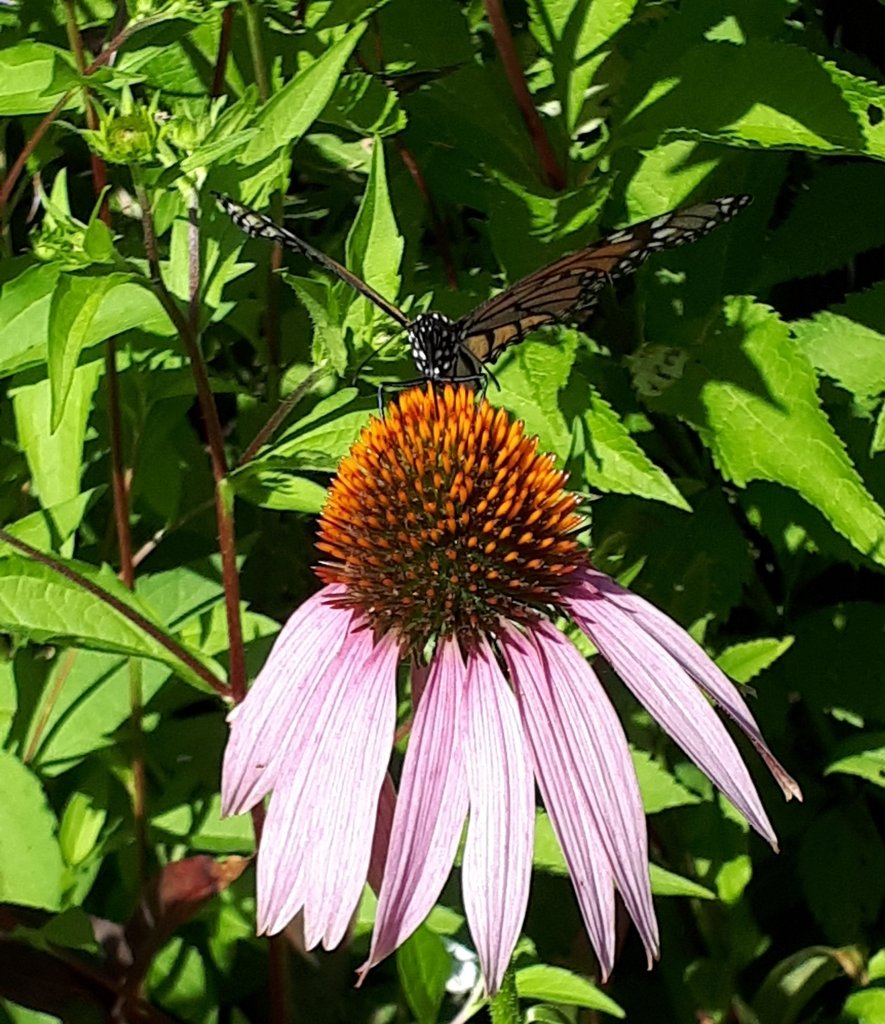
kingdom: Animalia
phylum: Arthropoda
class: Insecta
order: Lepidoptera
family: Nymphalidae
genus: Danaus
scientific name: Danaus plexippus
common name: Monarch
